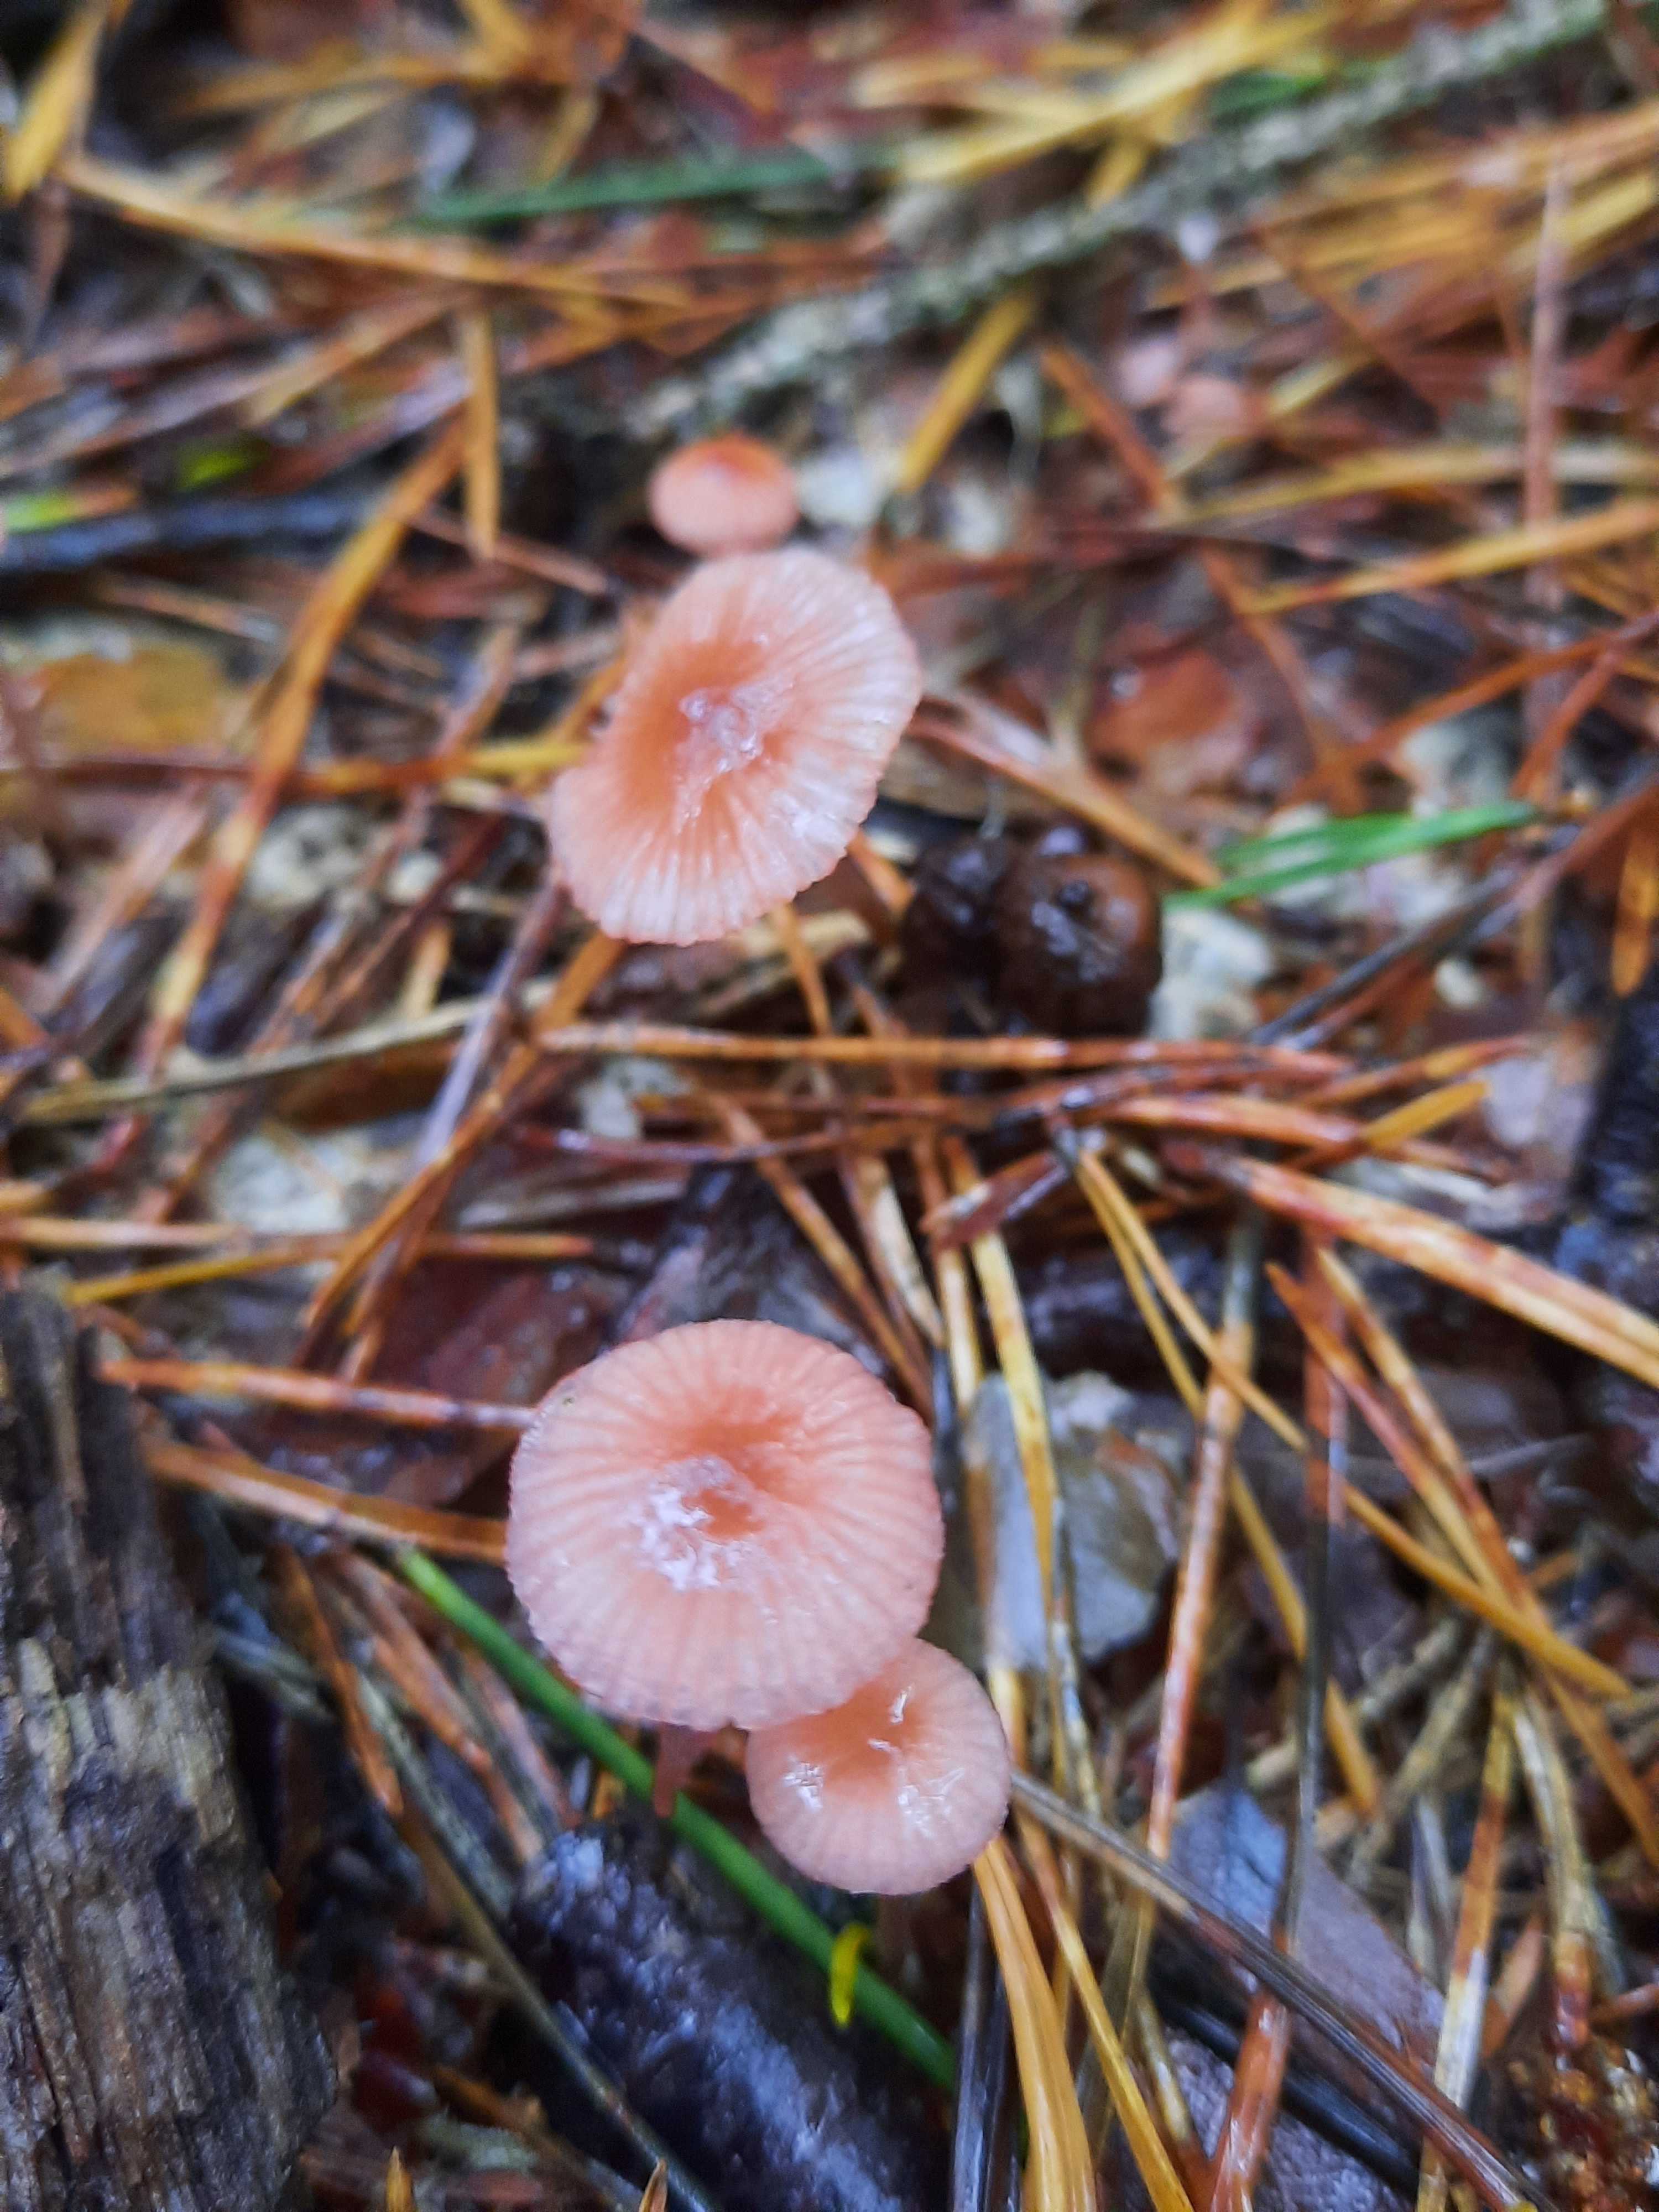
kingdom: Fungi
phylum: Basidiomycota
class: Agaricomycetes
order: Agaricales
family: Mycenaceae
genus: Mycena
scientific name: Mycena rosella
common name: rosenrød huesvamp
